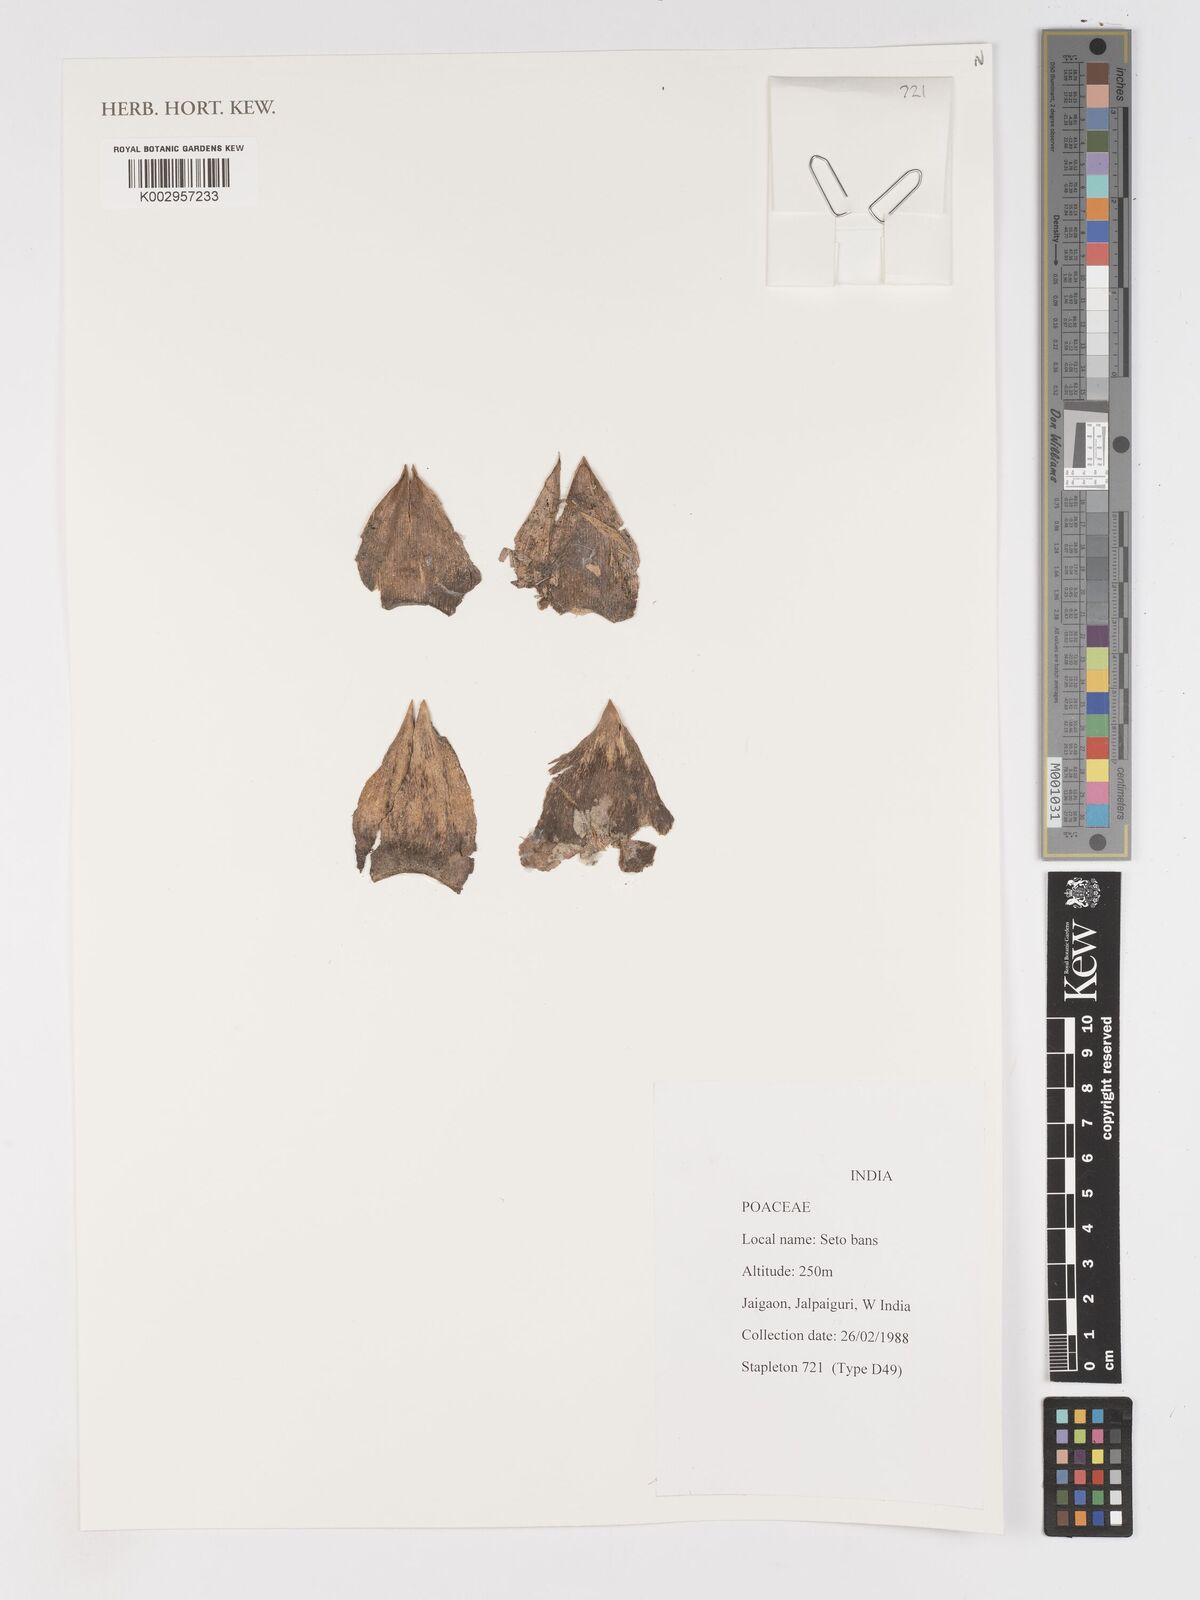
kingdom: Plantae
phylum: Tracheophyta
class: Liliopsida
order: Poales
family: Poaceae
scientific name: Poaceae
